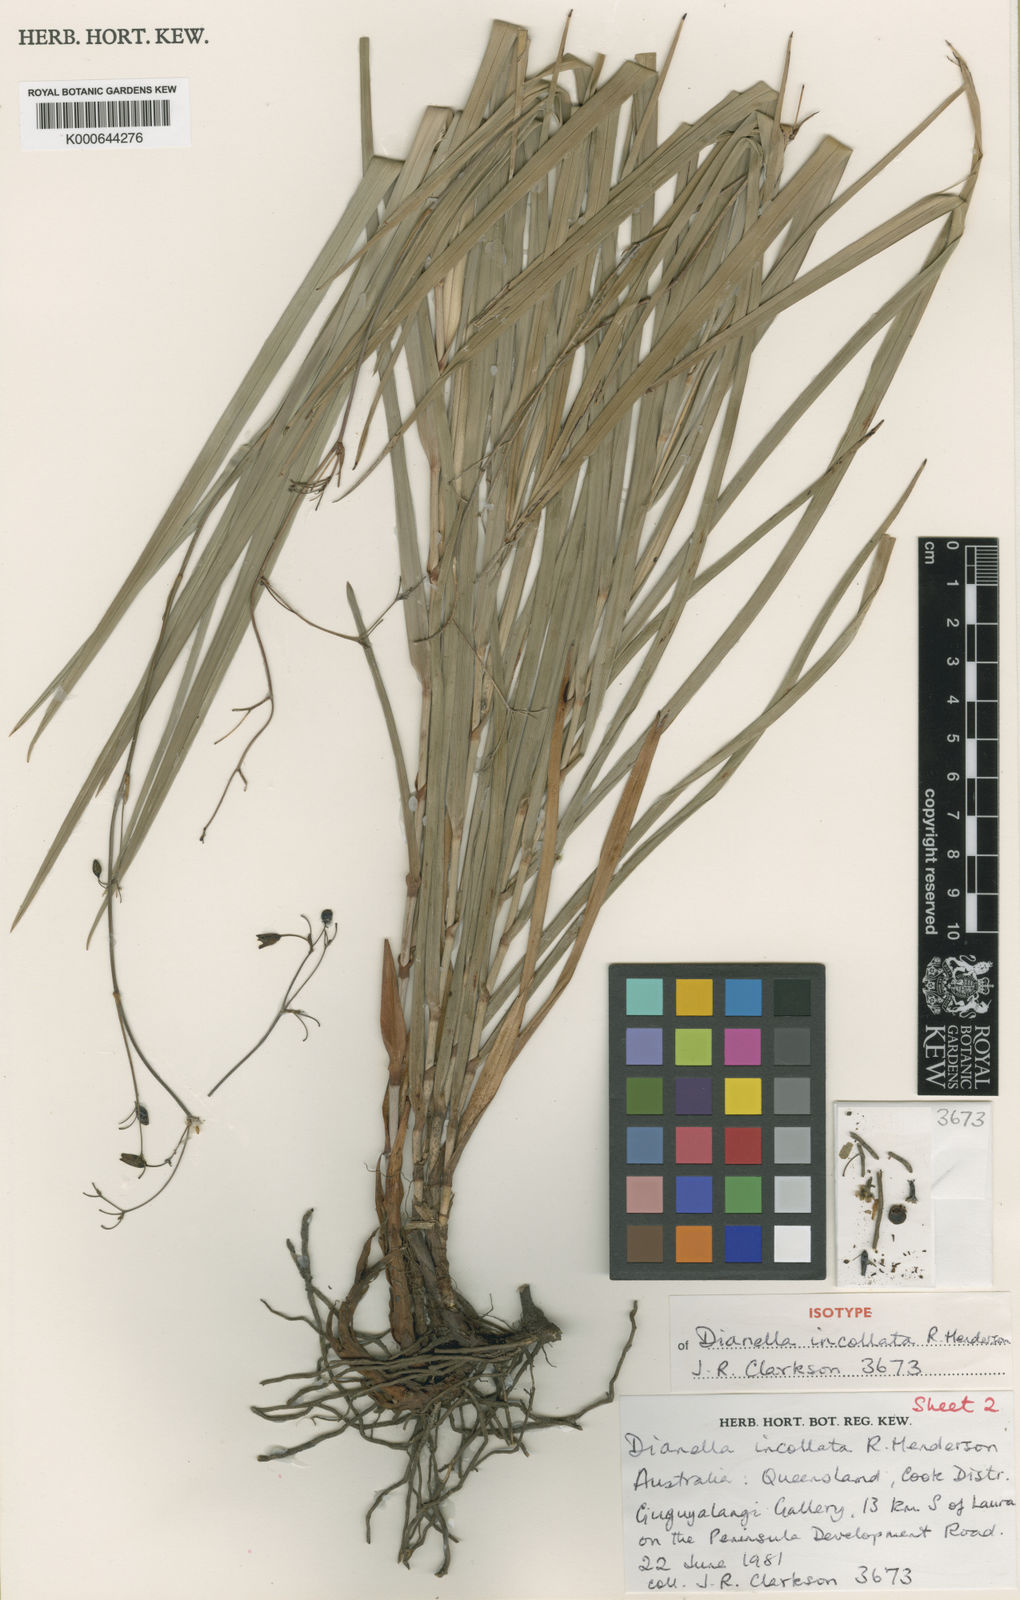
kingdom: Plantae
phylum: Tracheophyta
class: Liliopsida
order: Asparagales
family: Asphodelaceae
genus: Dianella
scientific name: Dianella incollata
